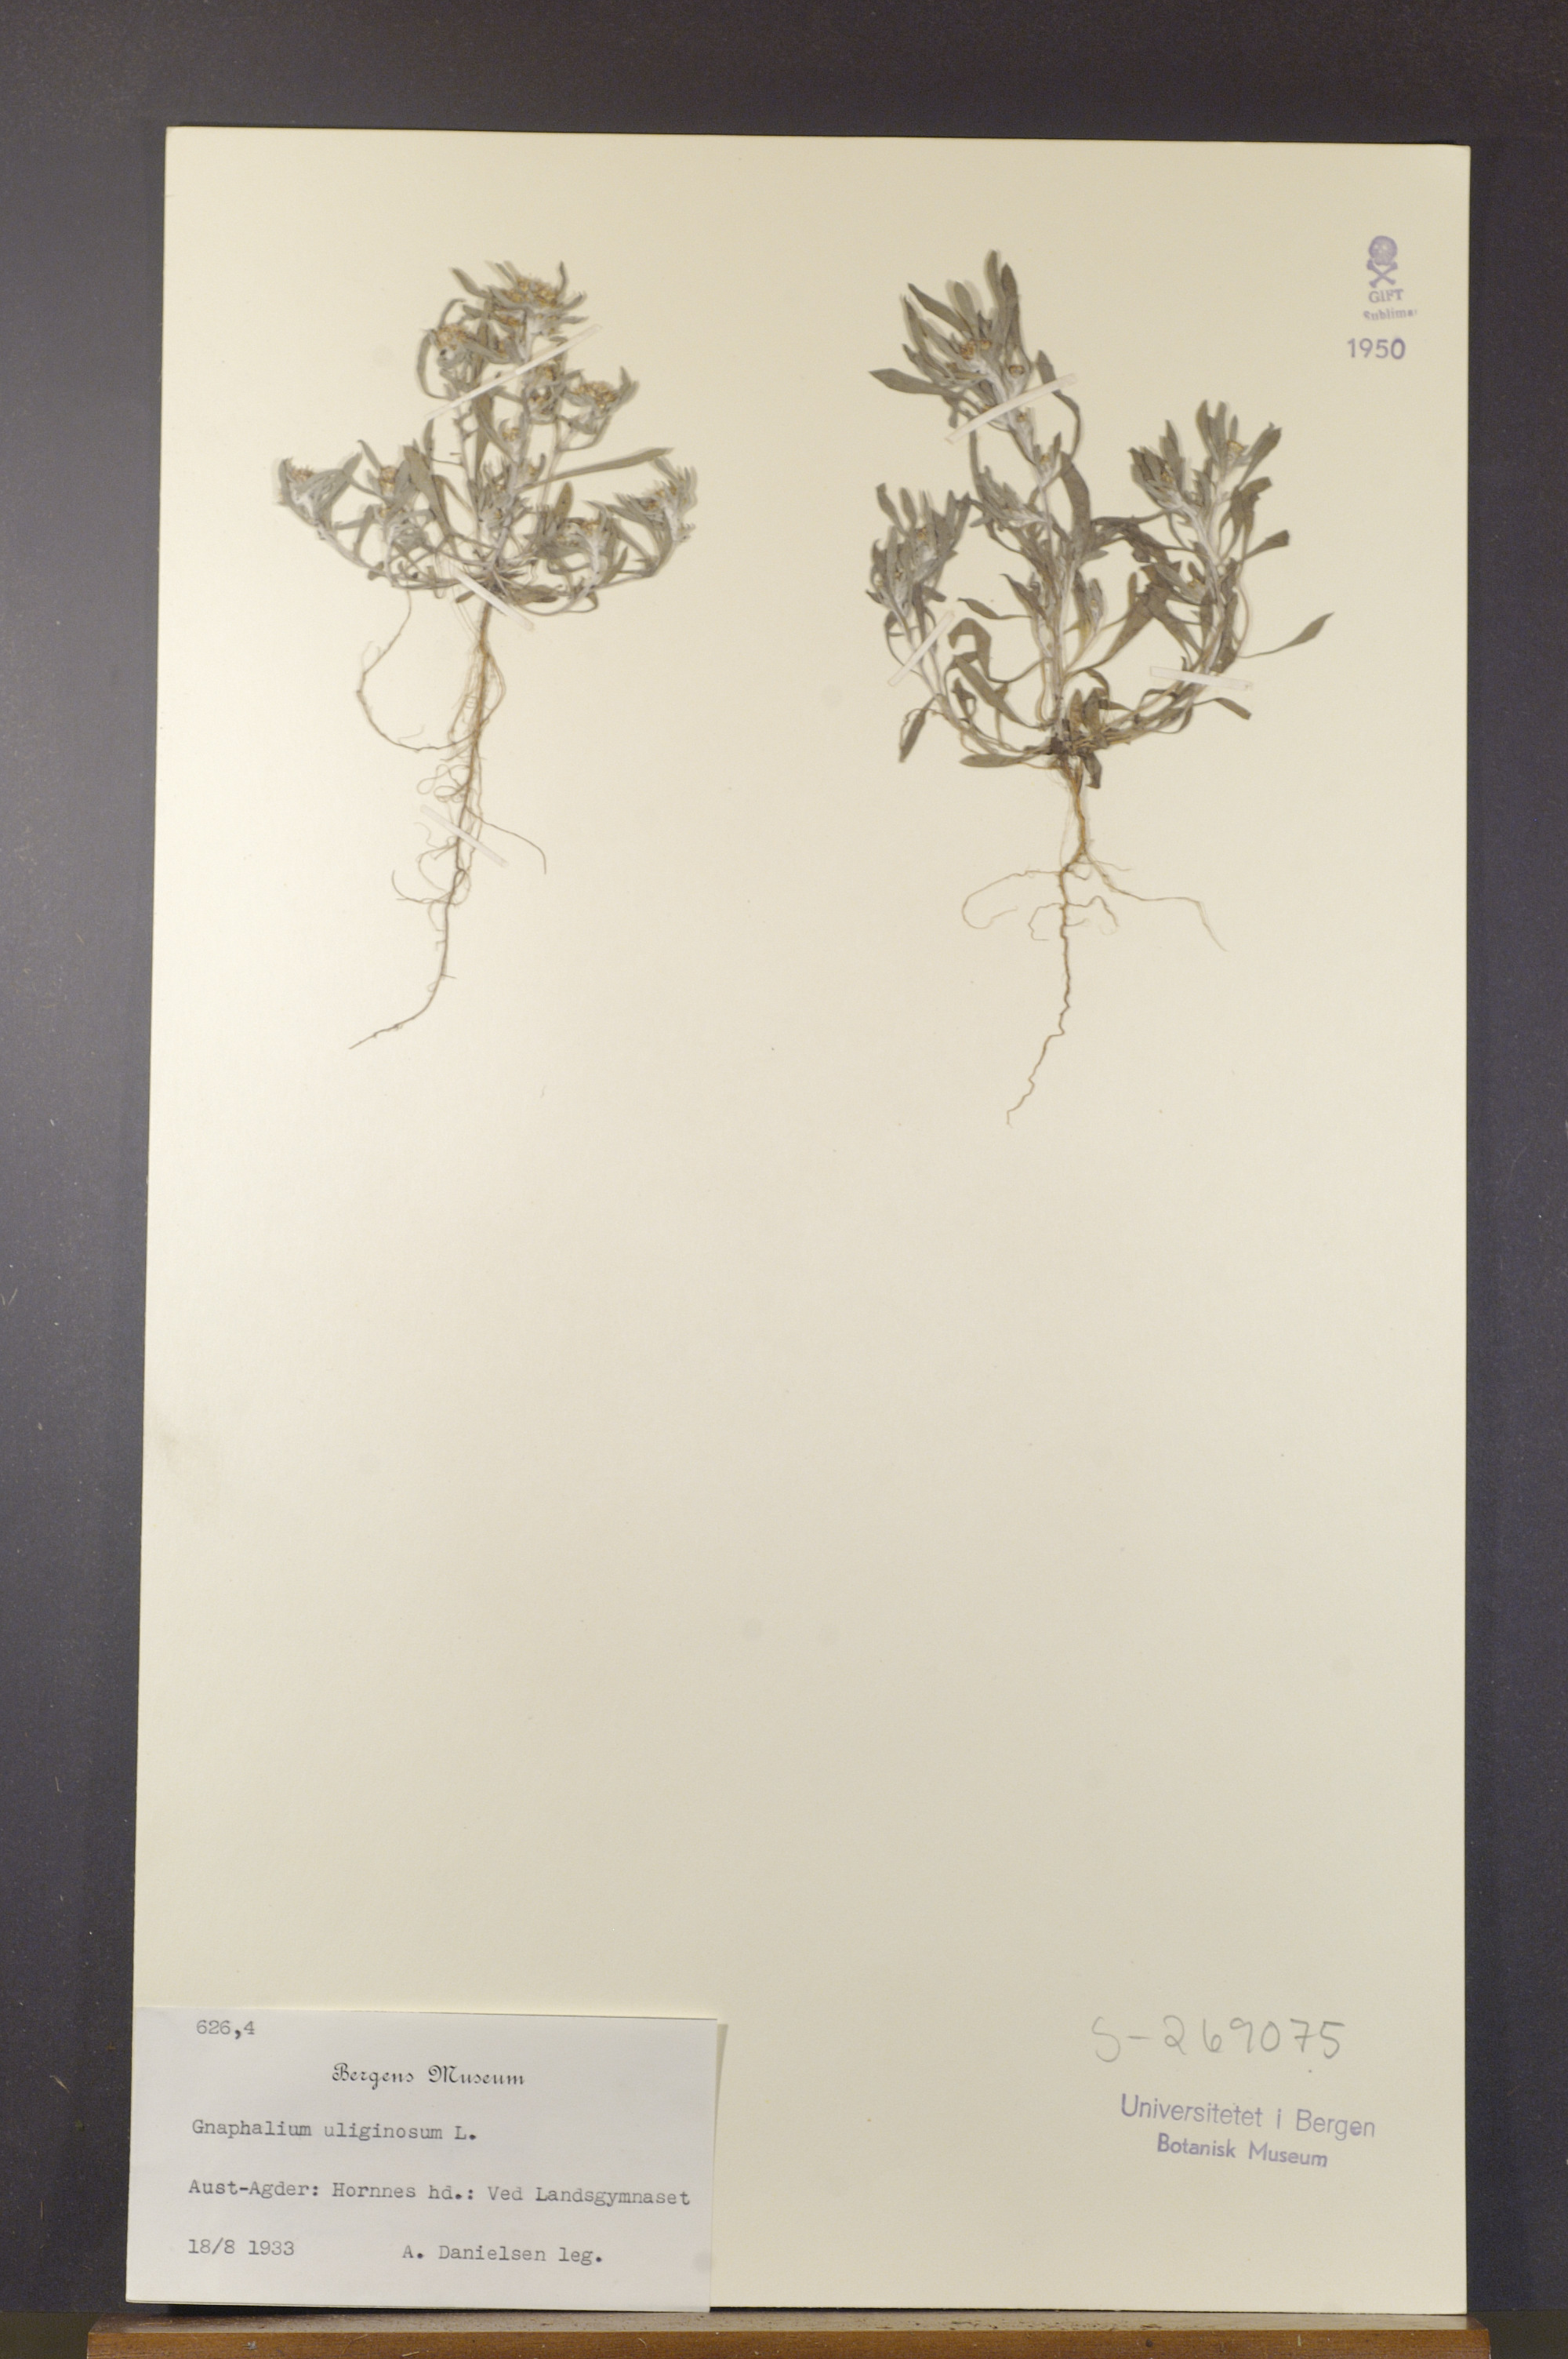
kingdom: Plantae
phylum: Tracheophyta
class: Magnoliopsida
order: Asterales
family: Asteraceae
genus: Gnaphalium
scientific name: Gnaphalium uliginosum
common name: Marsh cudweed
